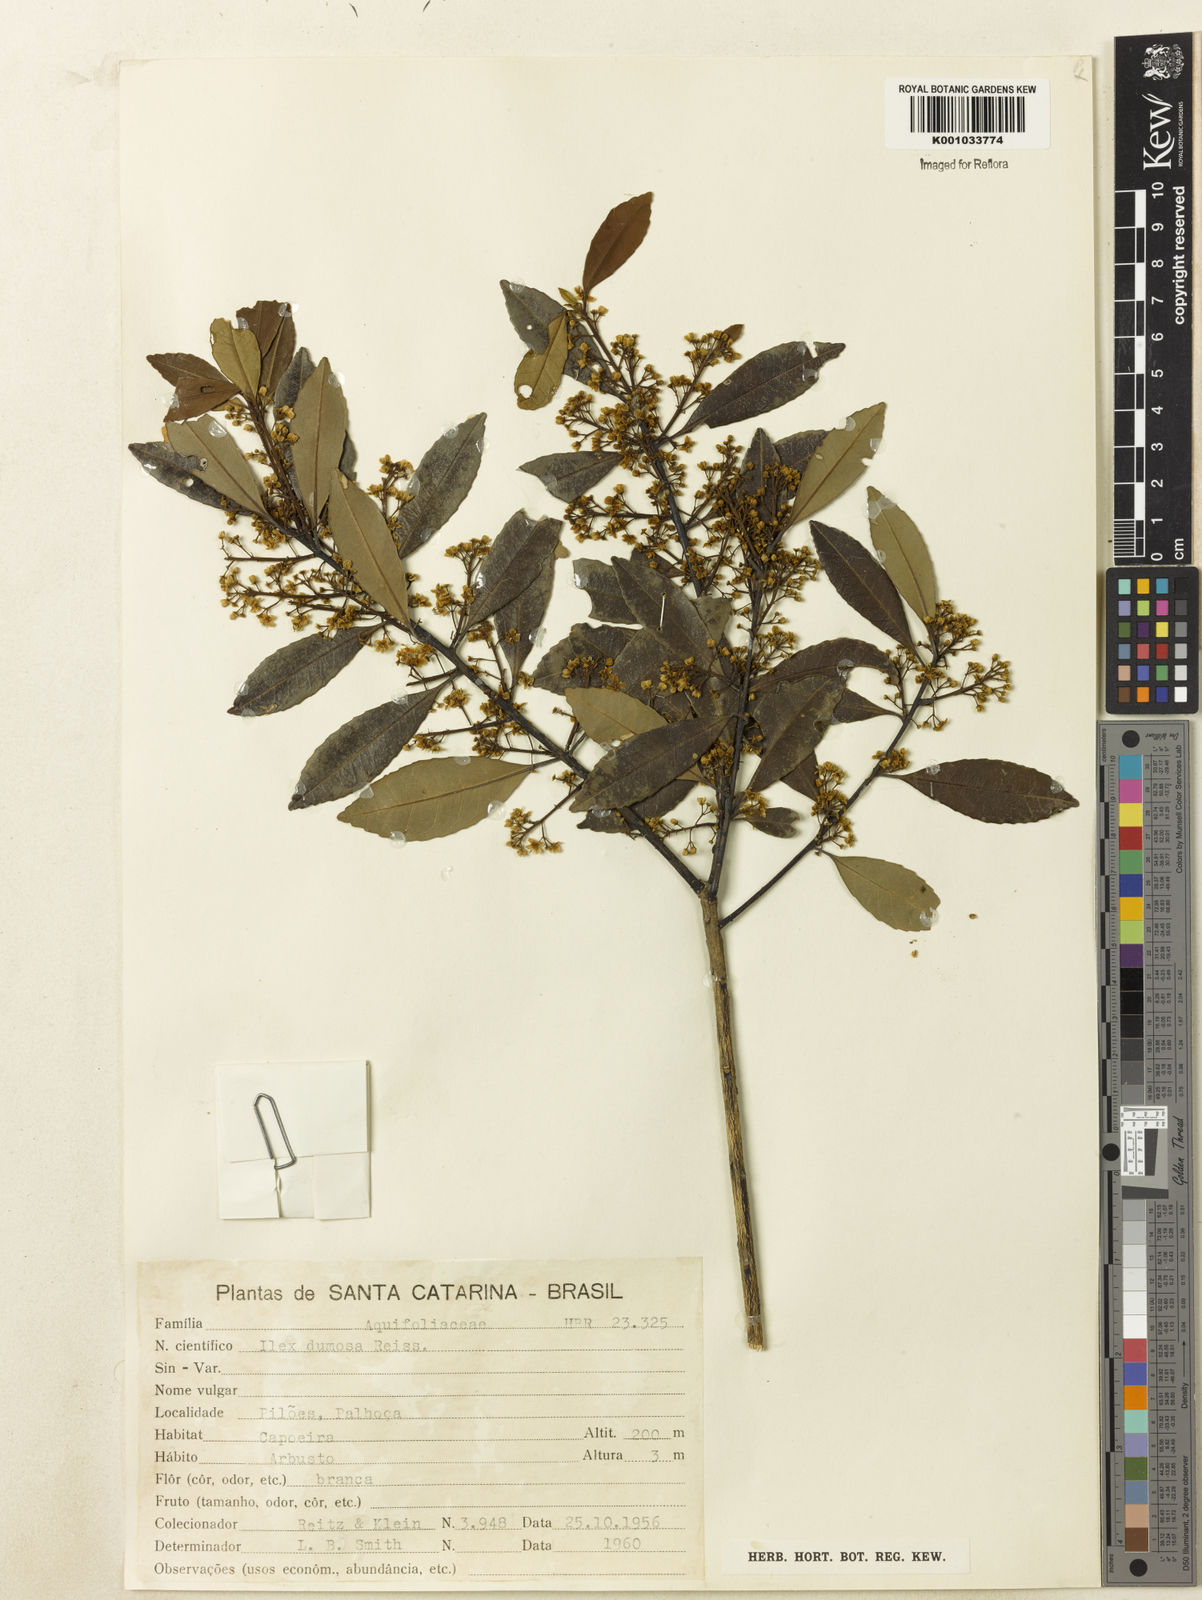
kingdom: Plantae
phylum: Tracheophyta
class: Magnoliopsida
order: Aquifoliales
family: Aquifoliaceae
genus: Ilex
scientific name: Ilex dumosa
